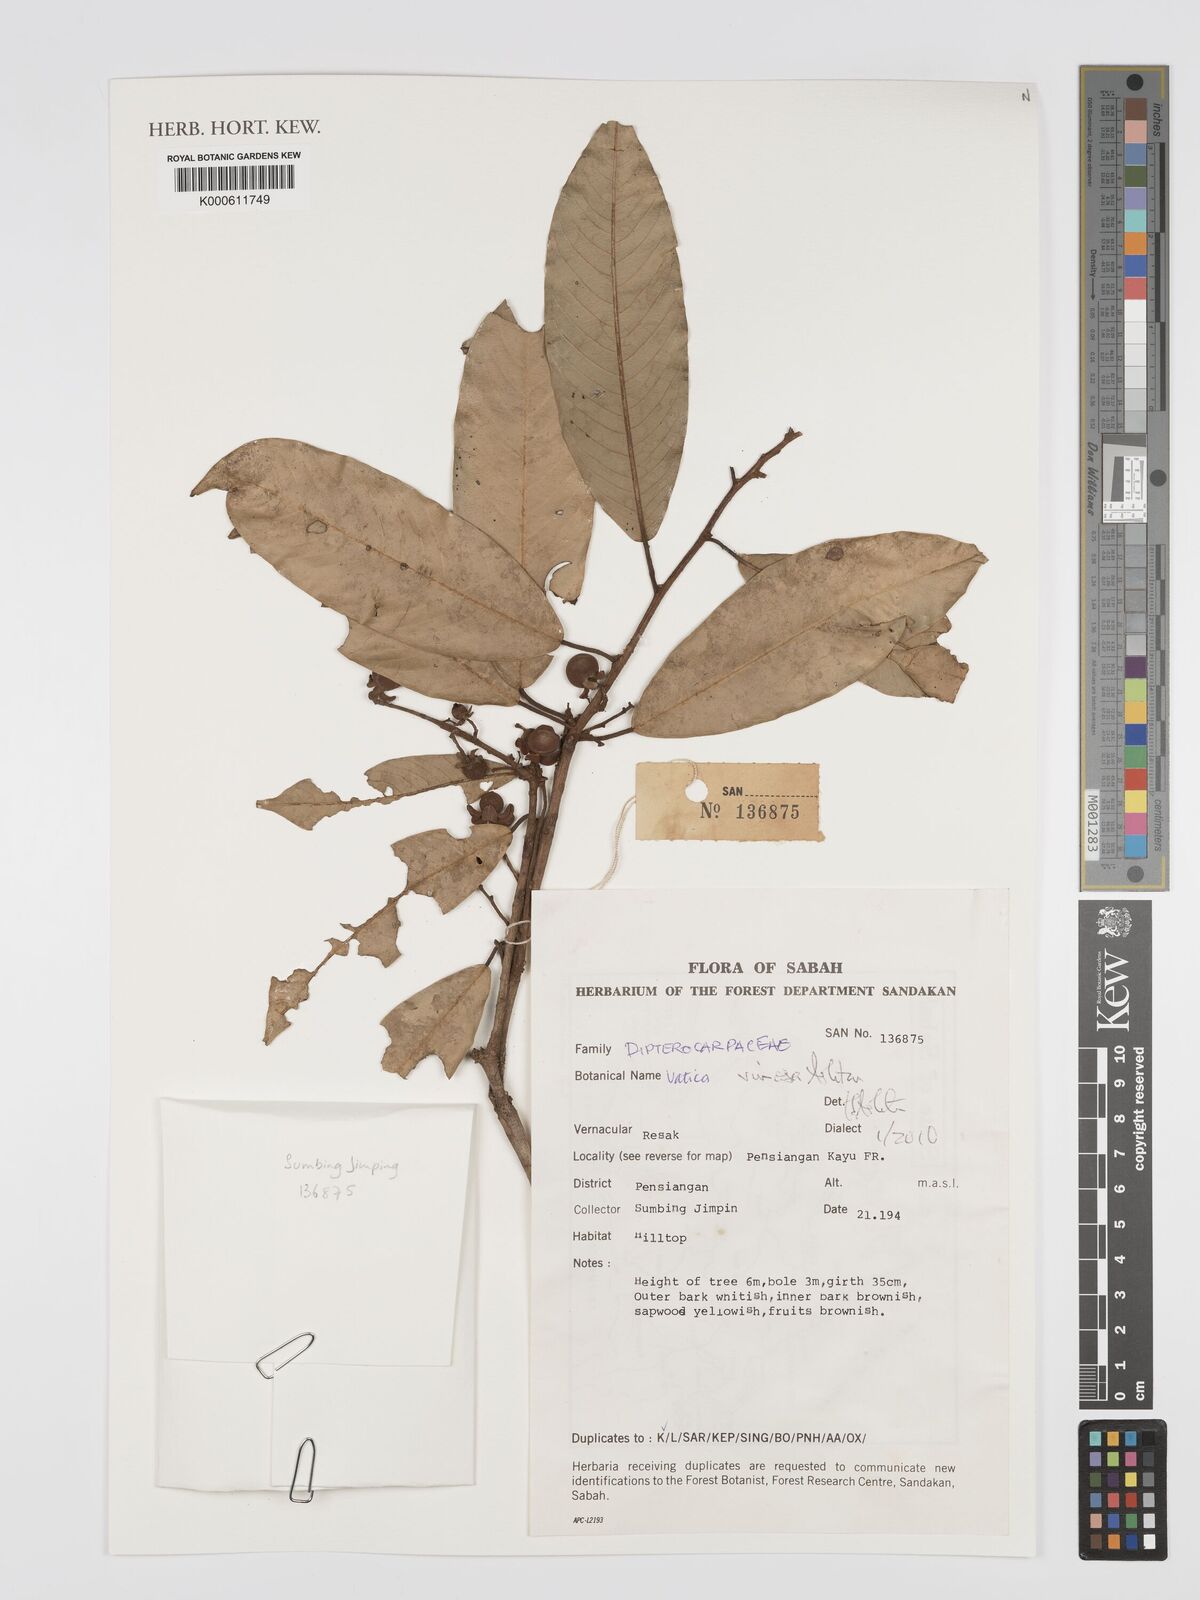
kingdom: Plantae
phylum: Tracheophyta
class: Magnoliopsida
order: Malvales
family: Dipterocarpaceae
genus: Vatica
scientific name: Vatica vinosa
